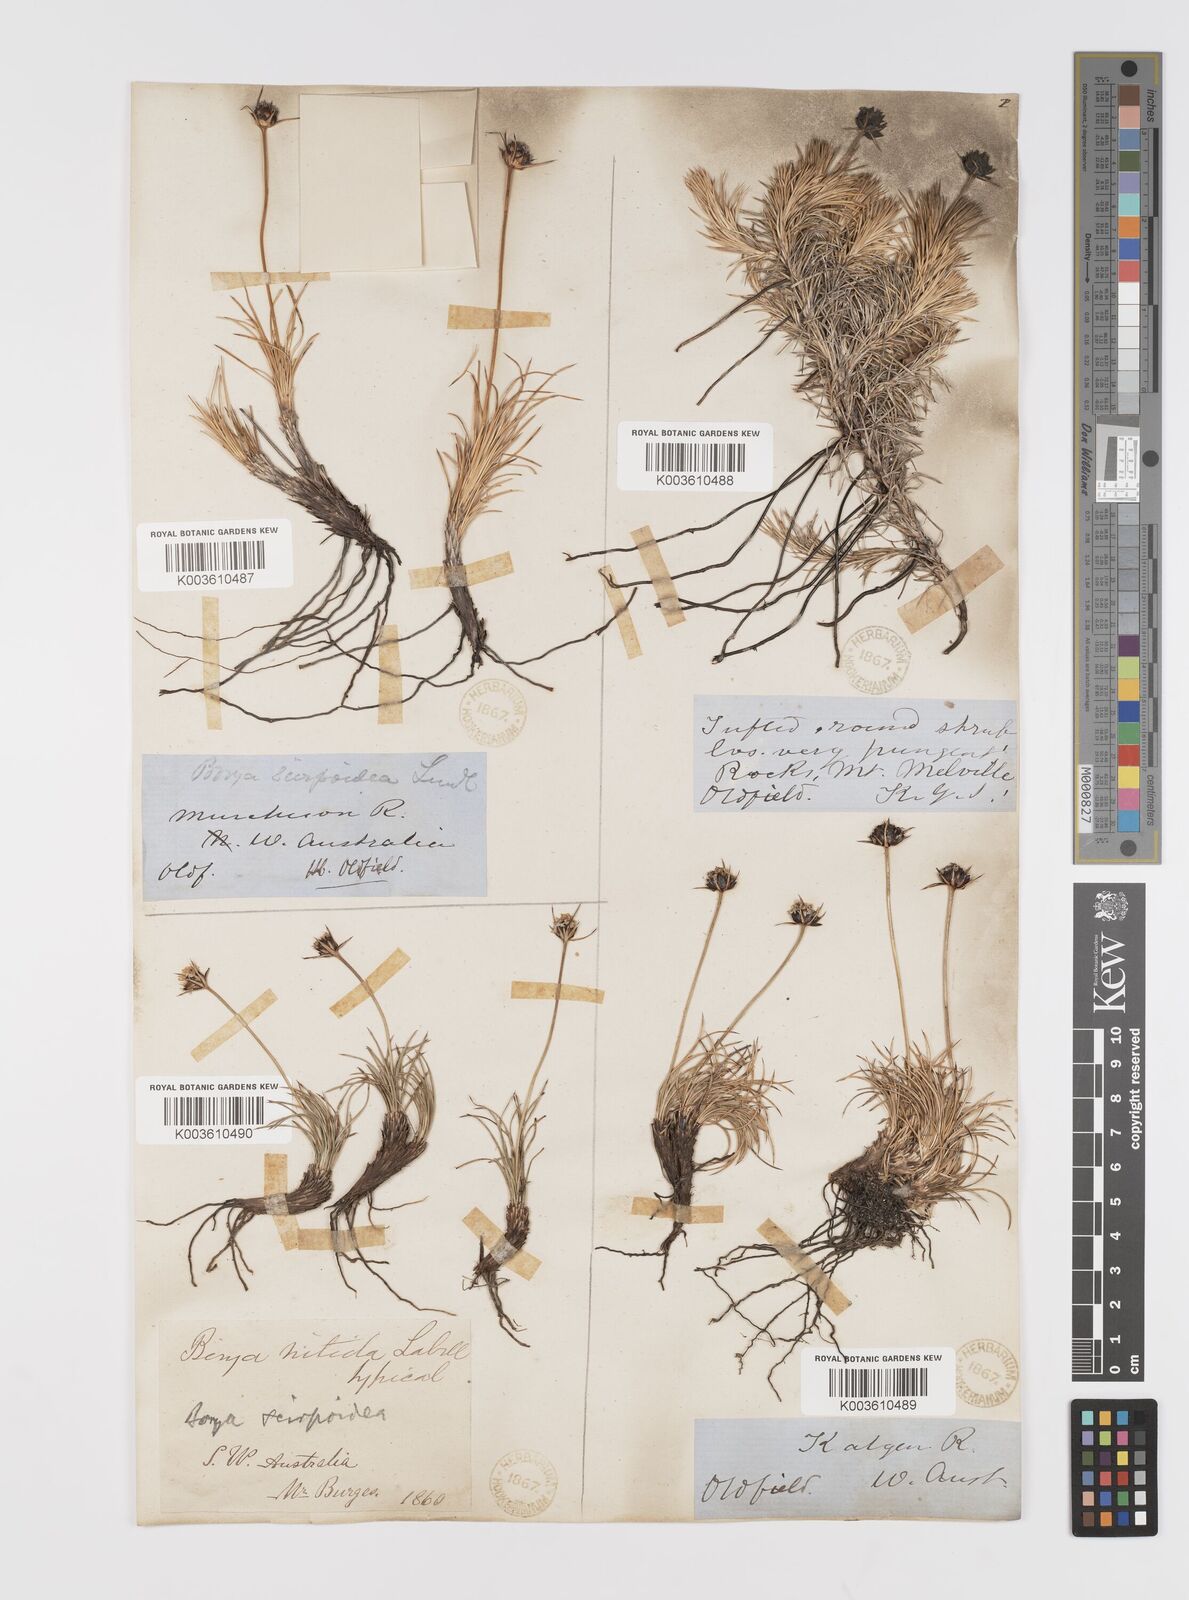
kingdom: Plantae
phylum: Tracheophyta
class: Liliopsida
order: Asparagales
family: Boryaceae
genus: Borya
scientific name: Borya nitida
